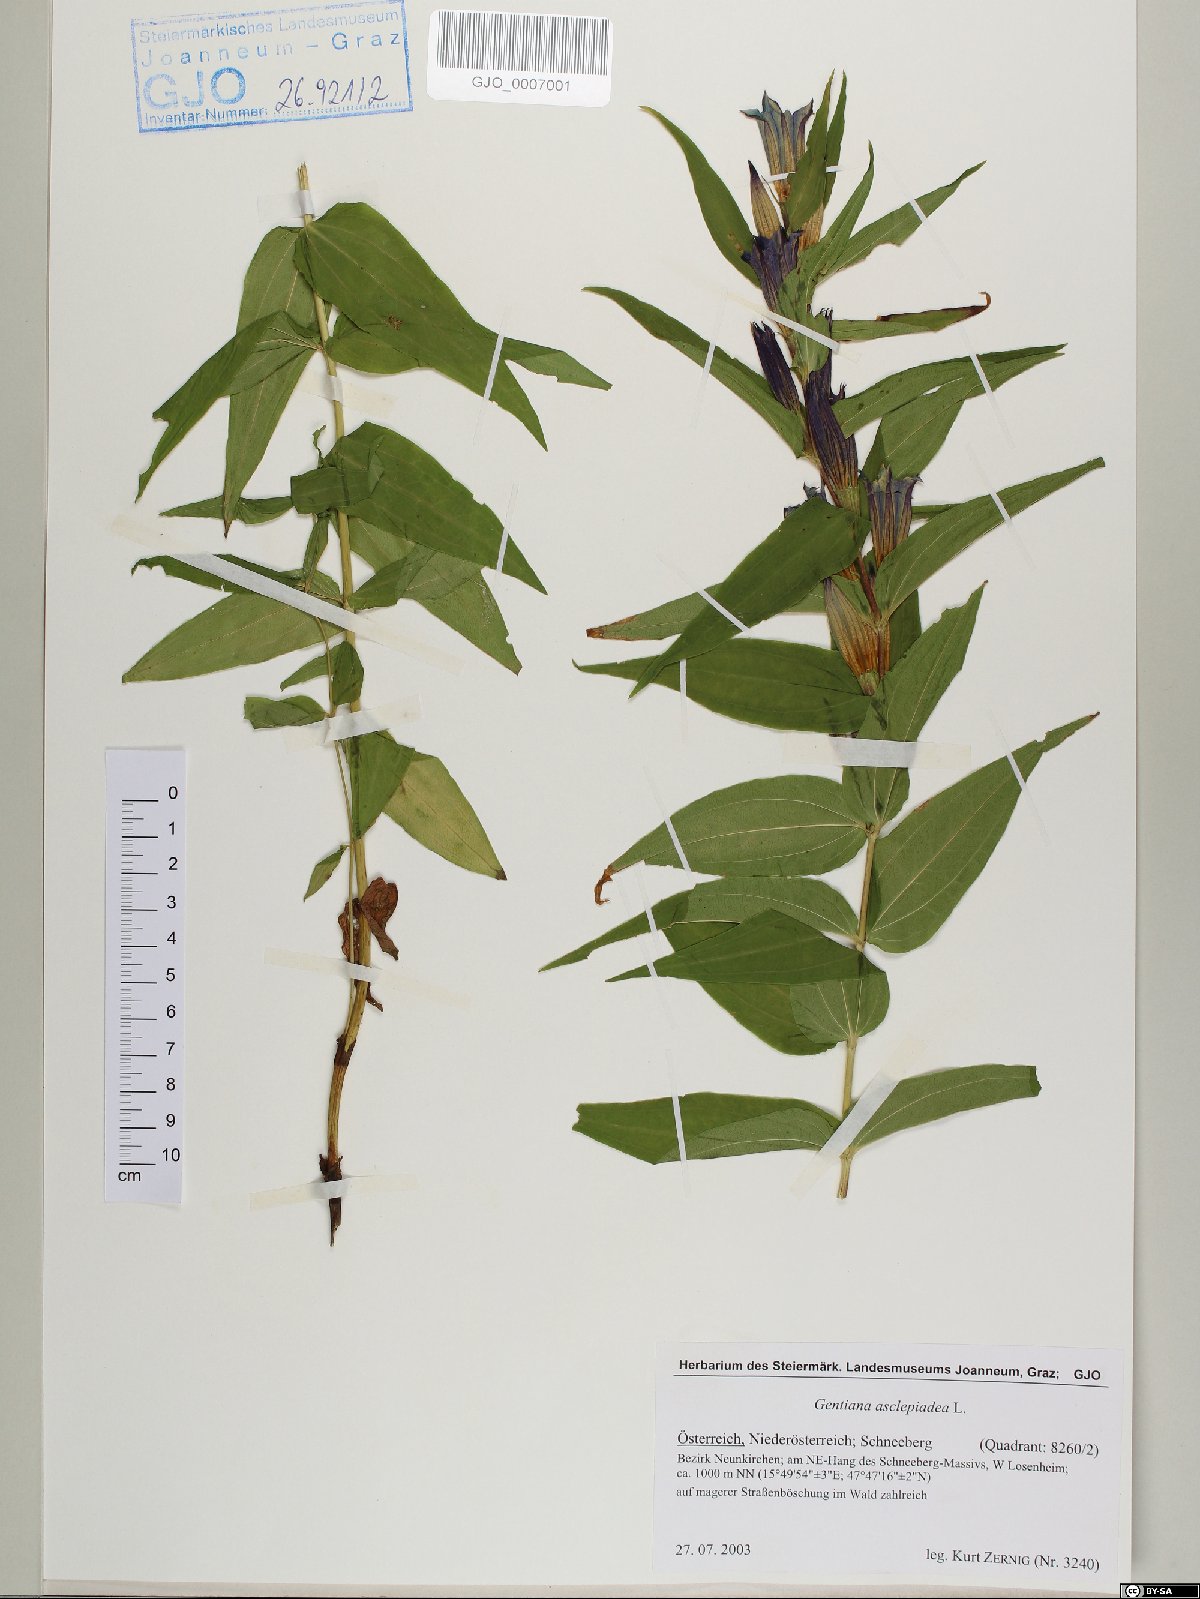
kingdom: Plantae
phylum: Tracheophyta
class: Magnoliopsida
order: Gentianales
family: Gentianaceae
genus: Gentiana
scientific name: Gentiana asclepiadea
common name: Willow gentian
